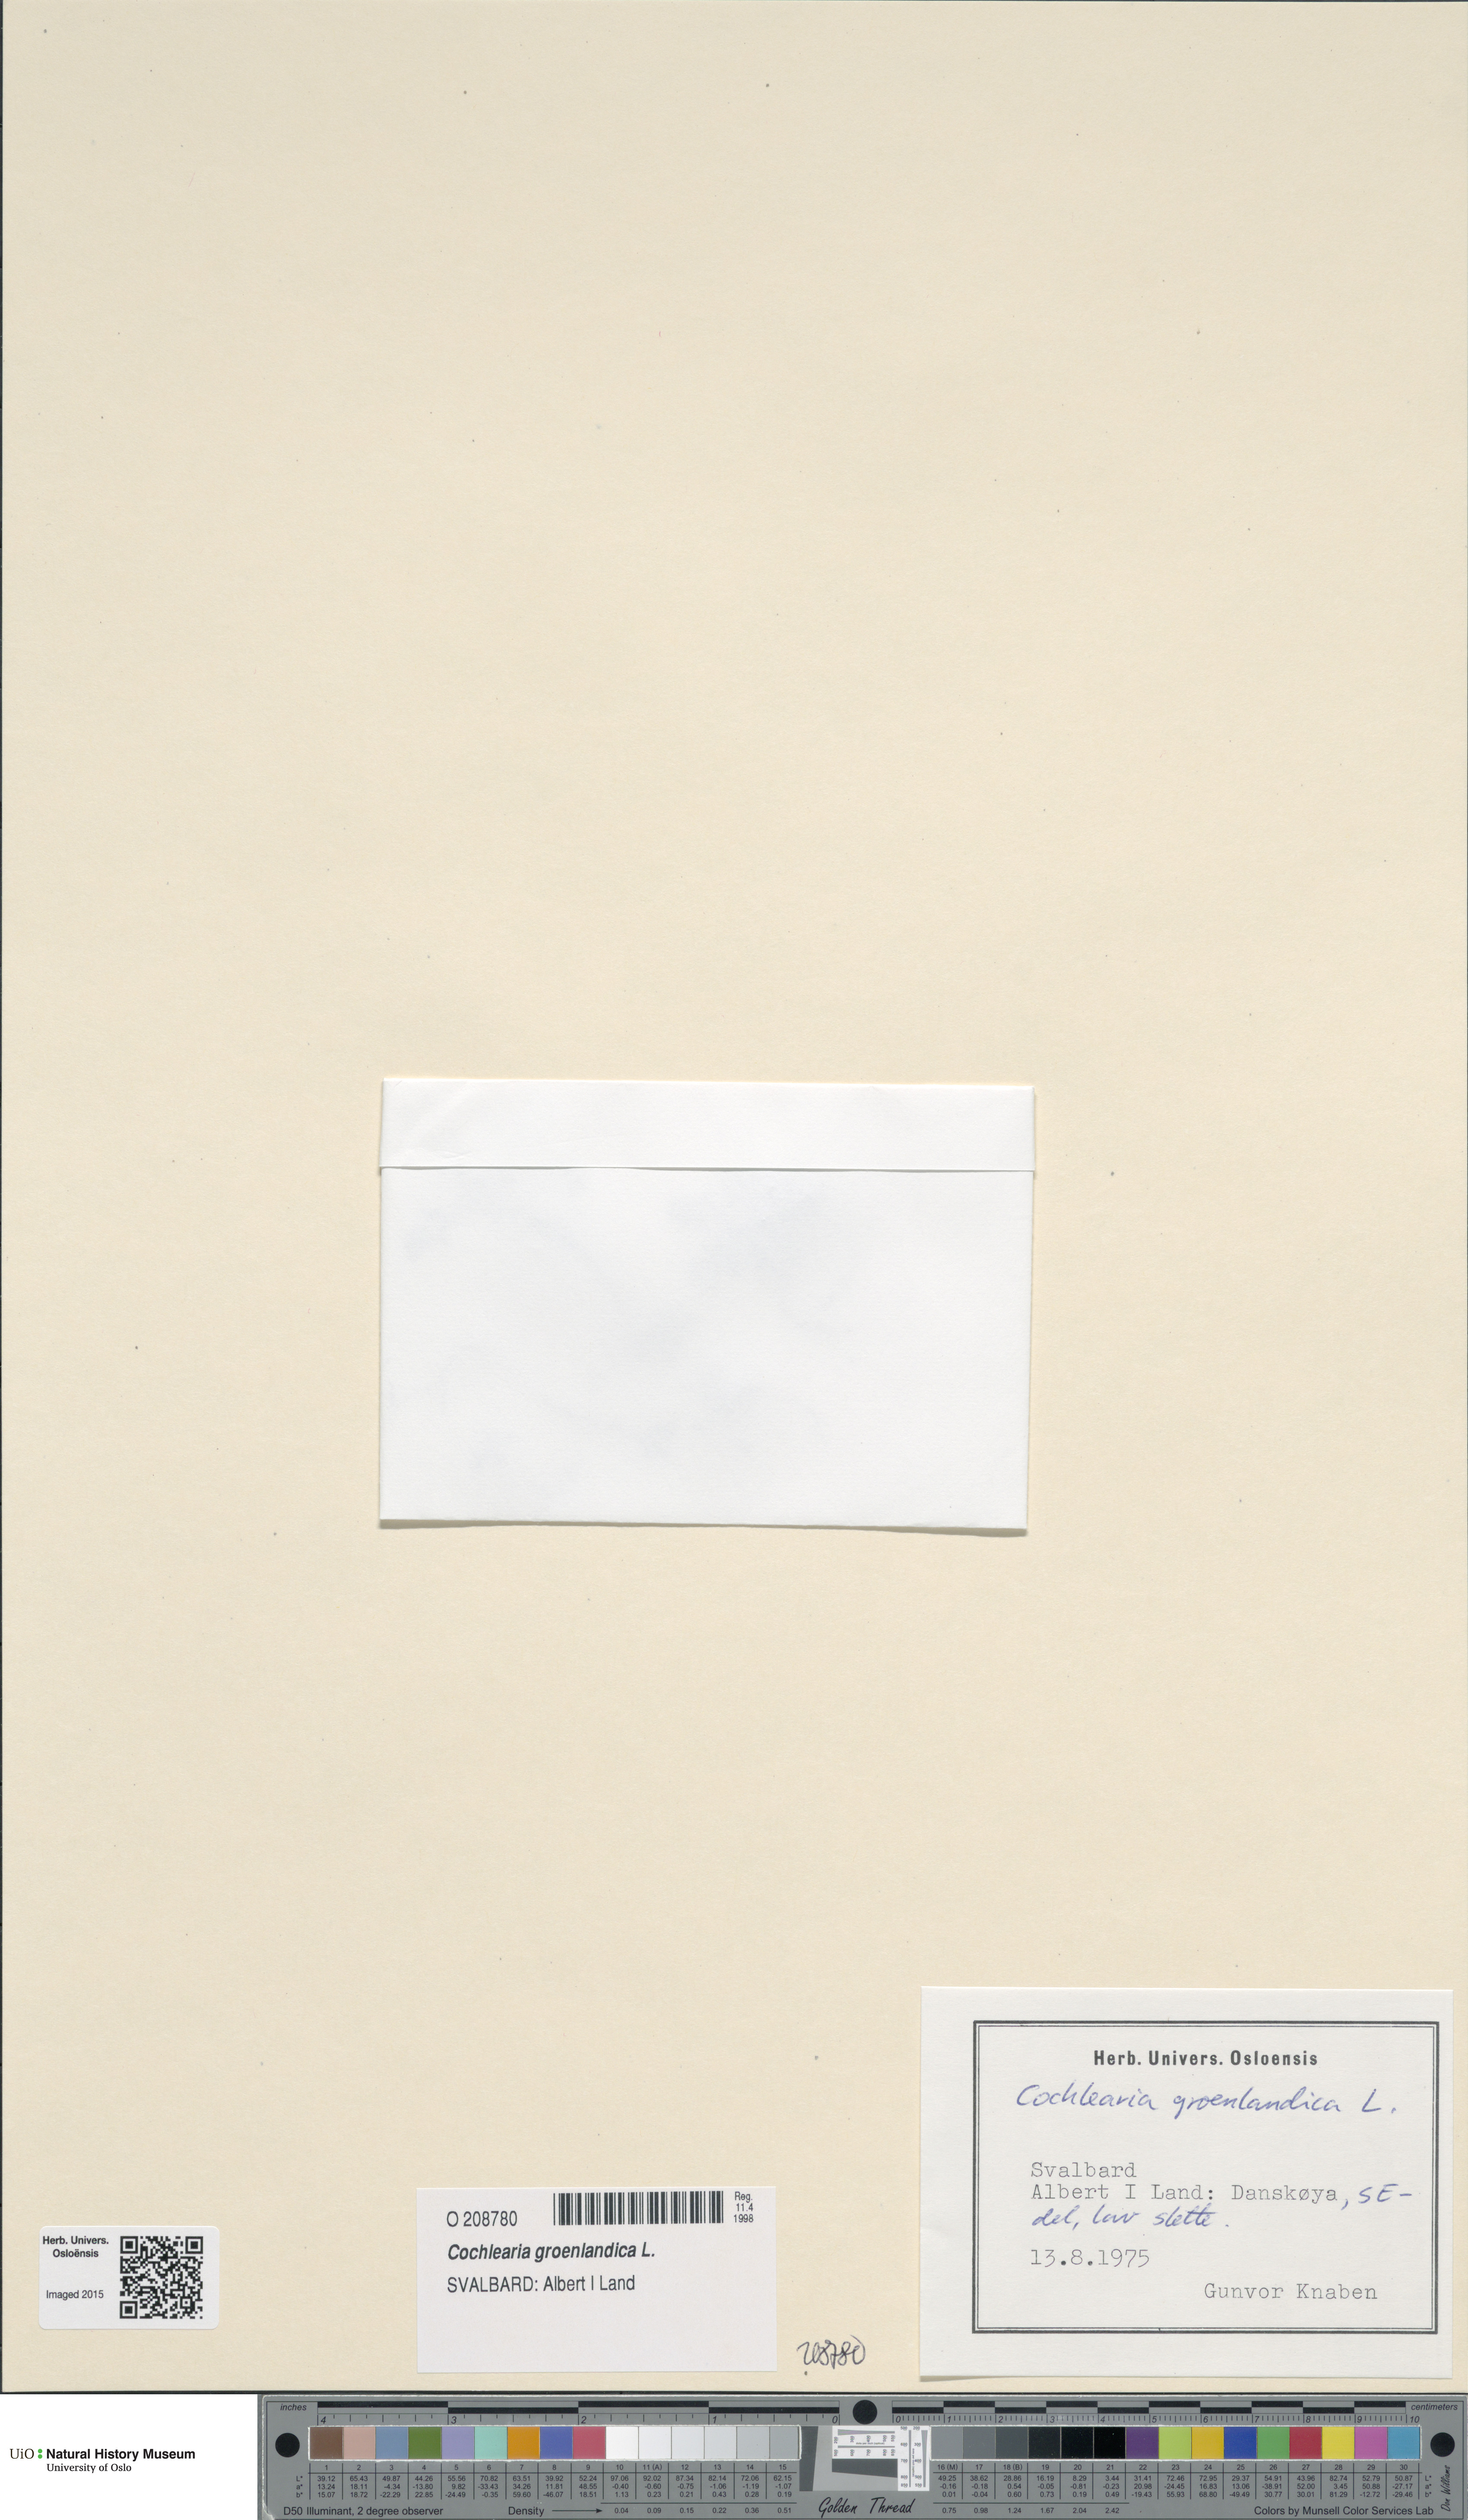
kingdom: Plantae
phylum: Tracheophyta
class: Magnoliopsida
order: Brassicales
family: Brassicaceae
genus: Cochlearia
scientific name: Cochlearia groenlandica
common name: Danish scurvygrass
